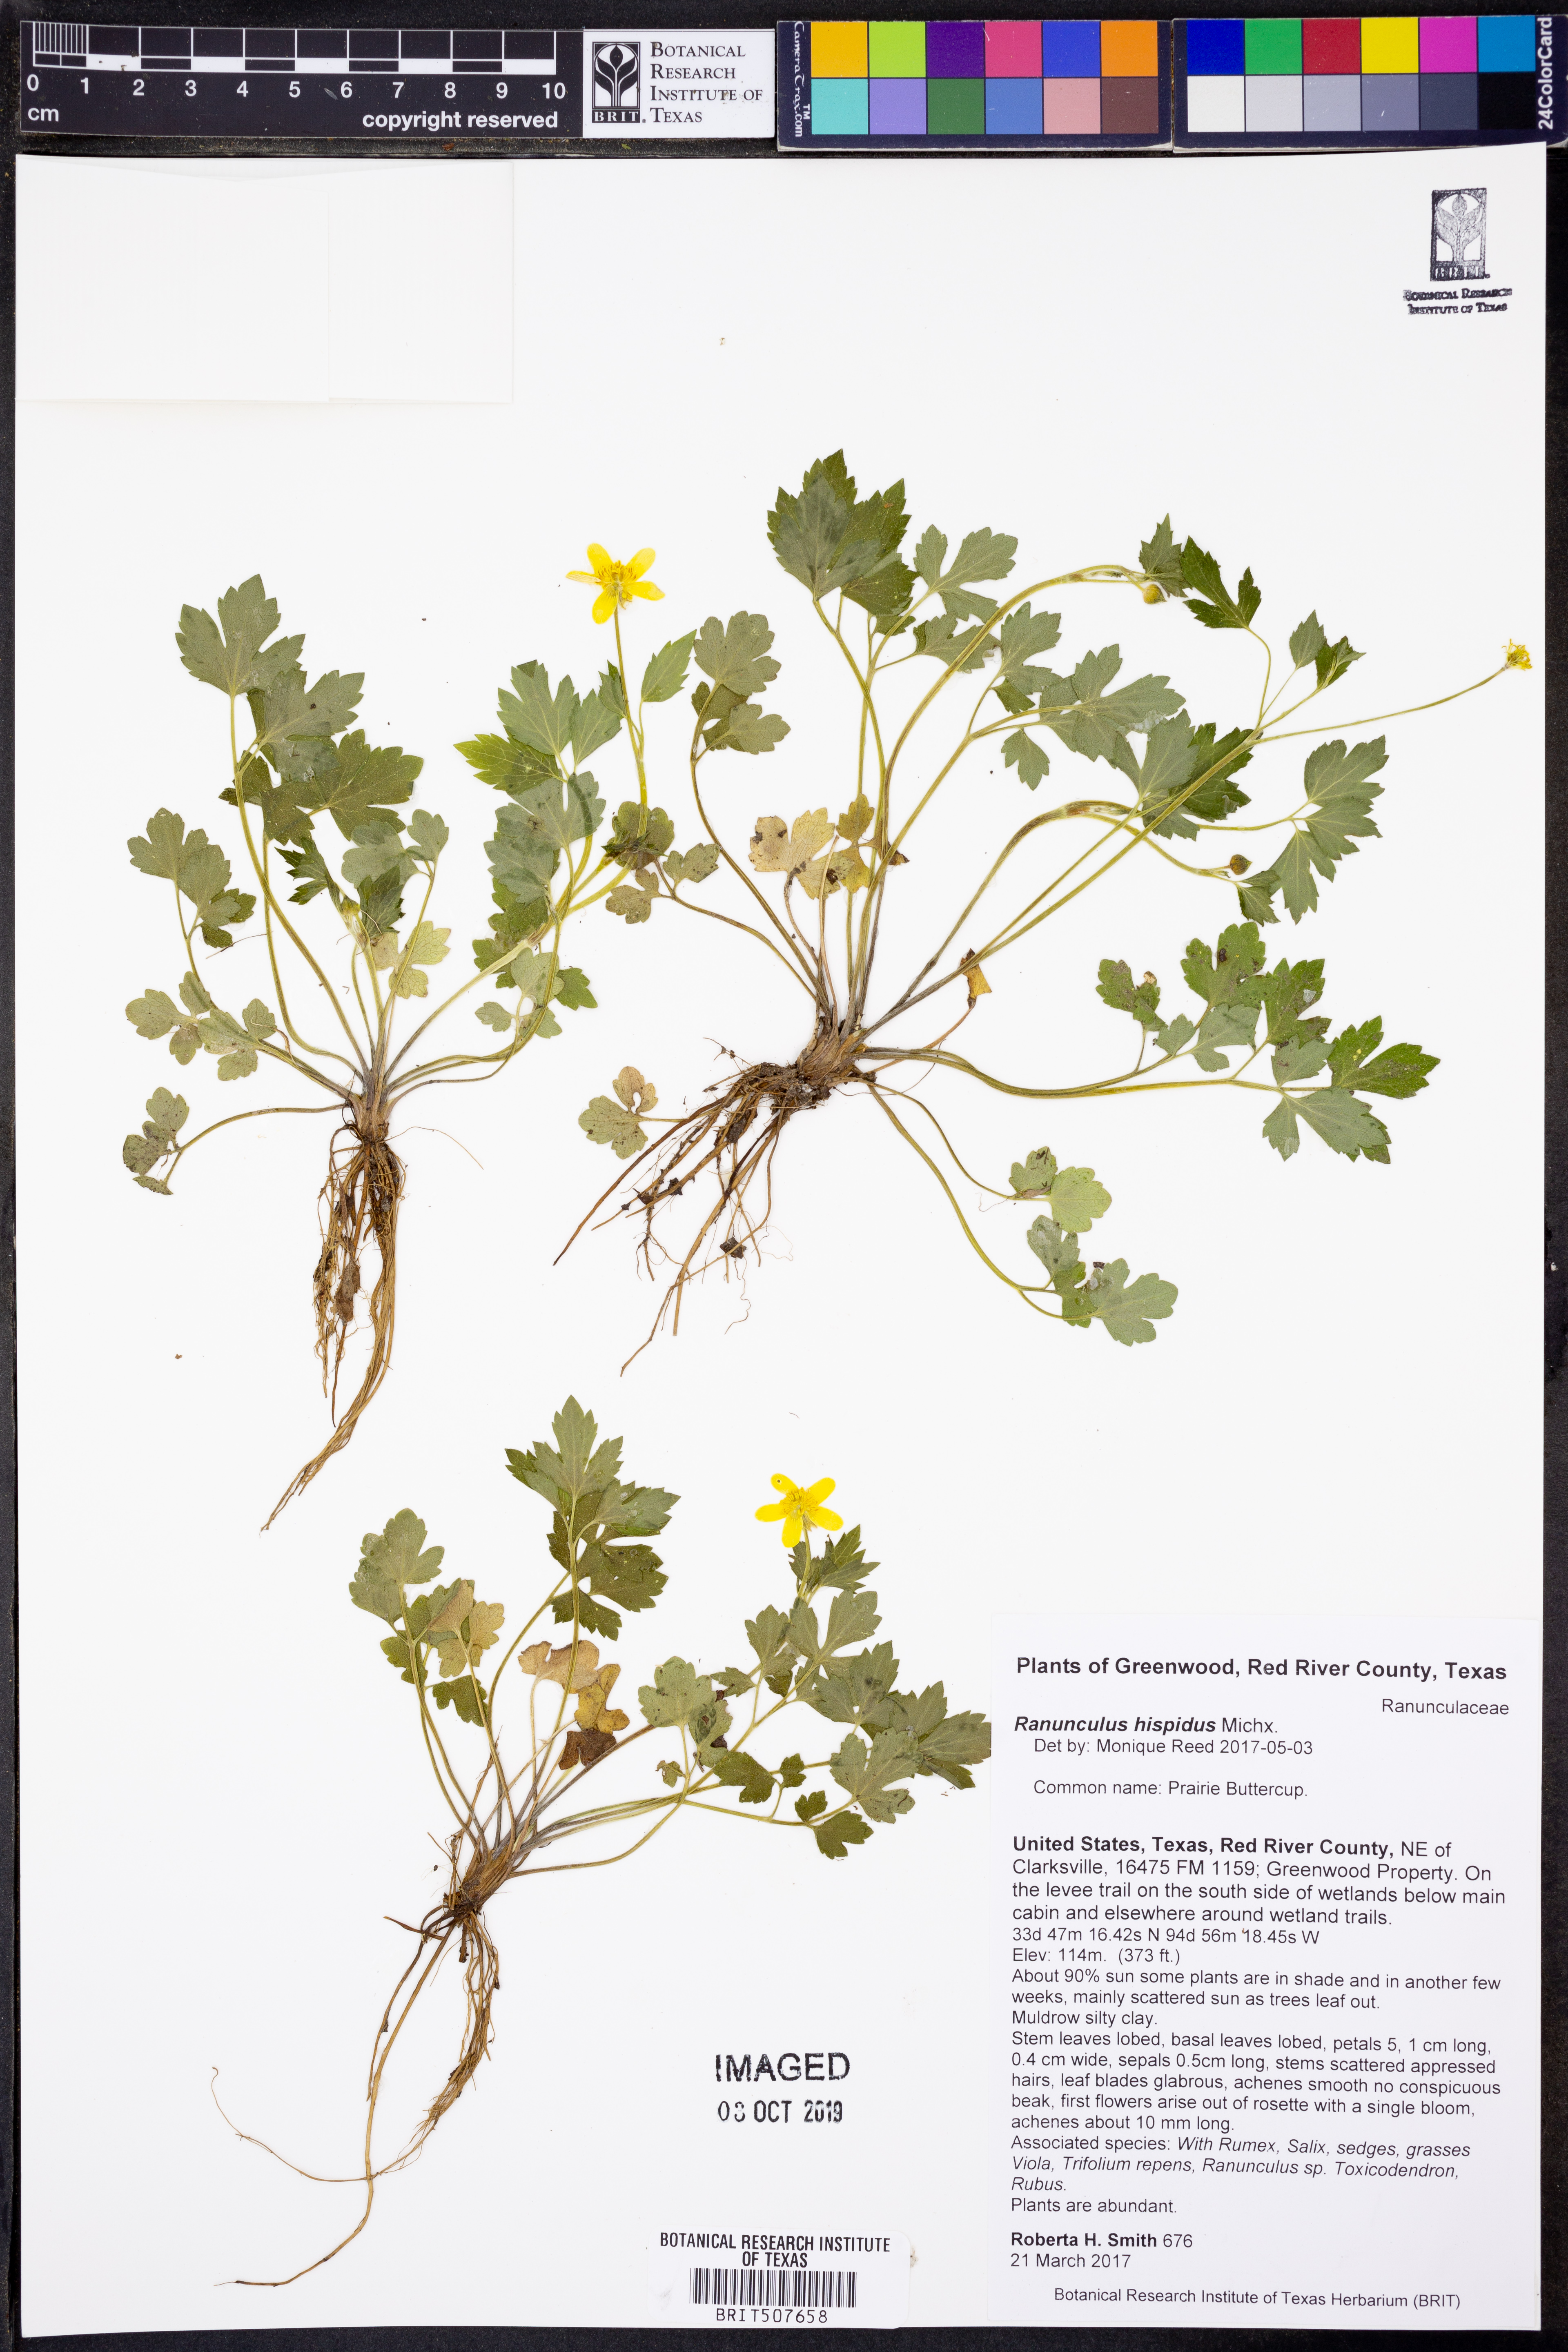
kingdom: Plantae
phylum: Tracheophyta
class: Magnoliopsida
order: Ranunculales
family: Ranunculaceae
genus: Ranunculus
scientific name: Ranunculus hispidus
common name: Bristly buttercup
